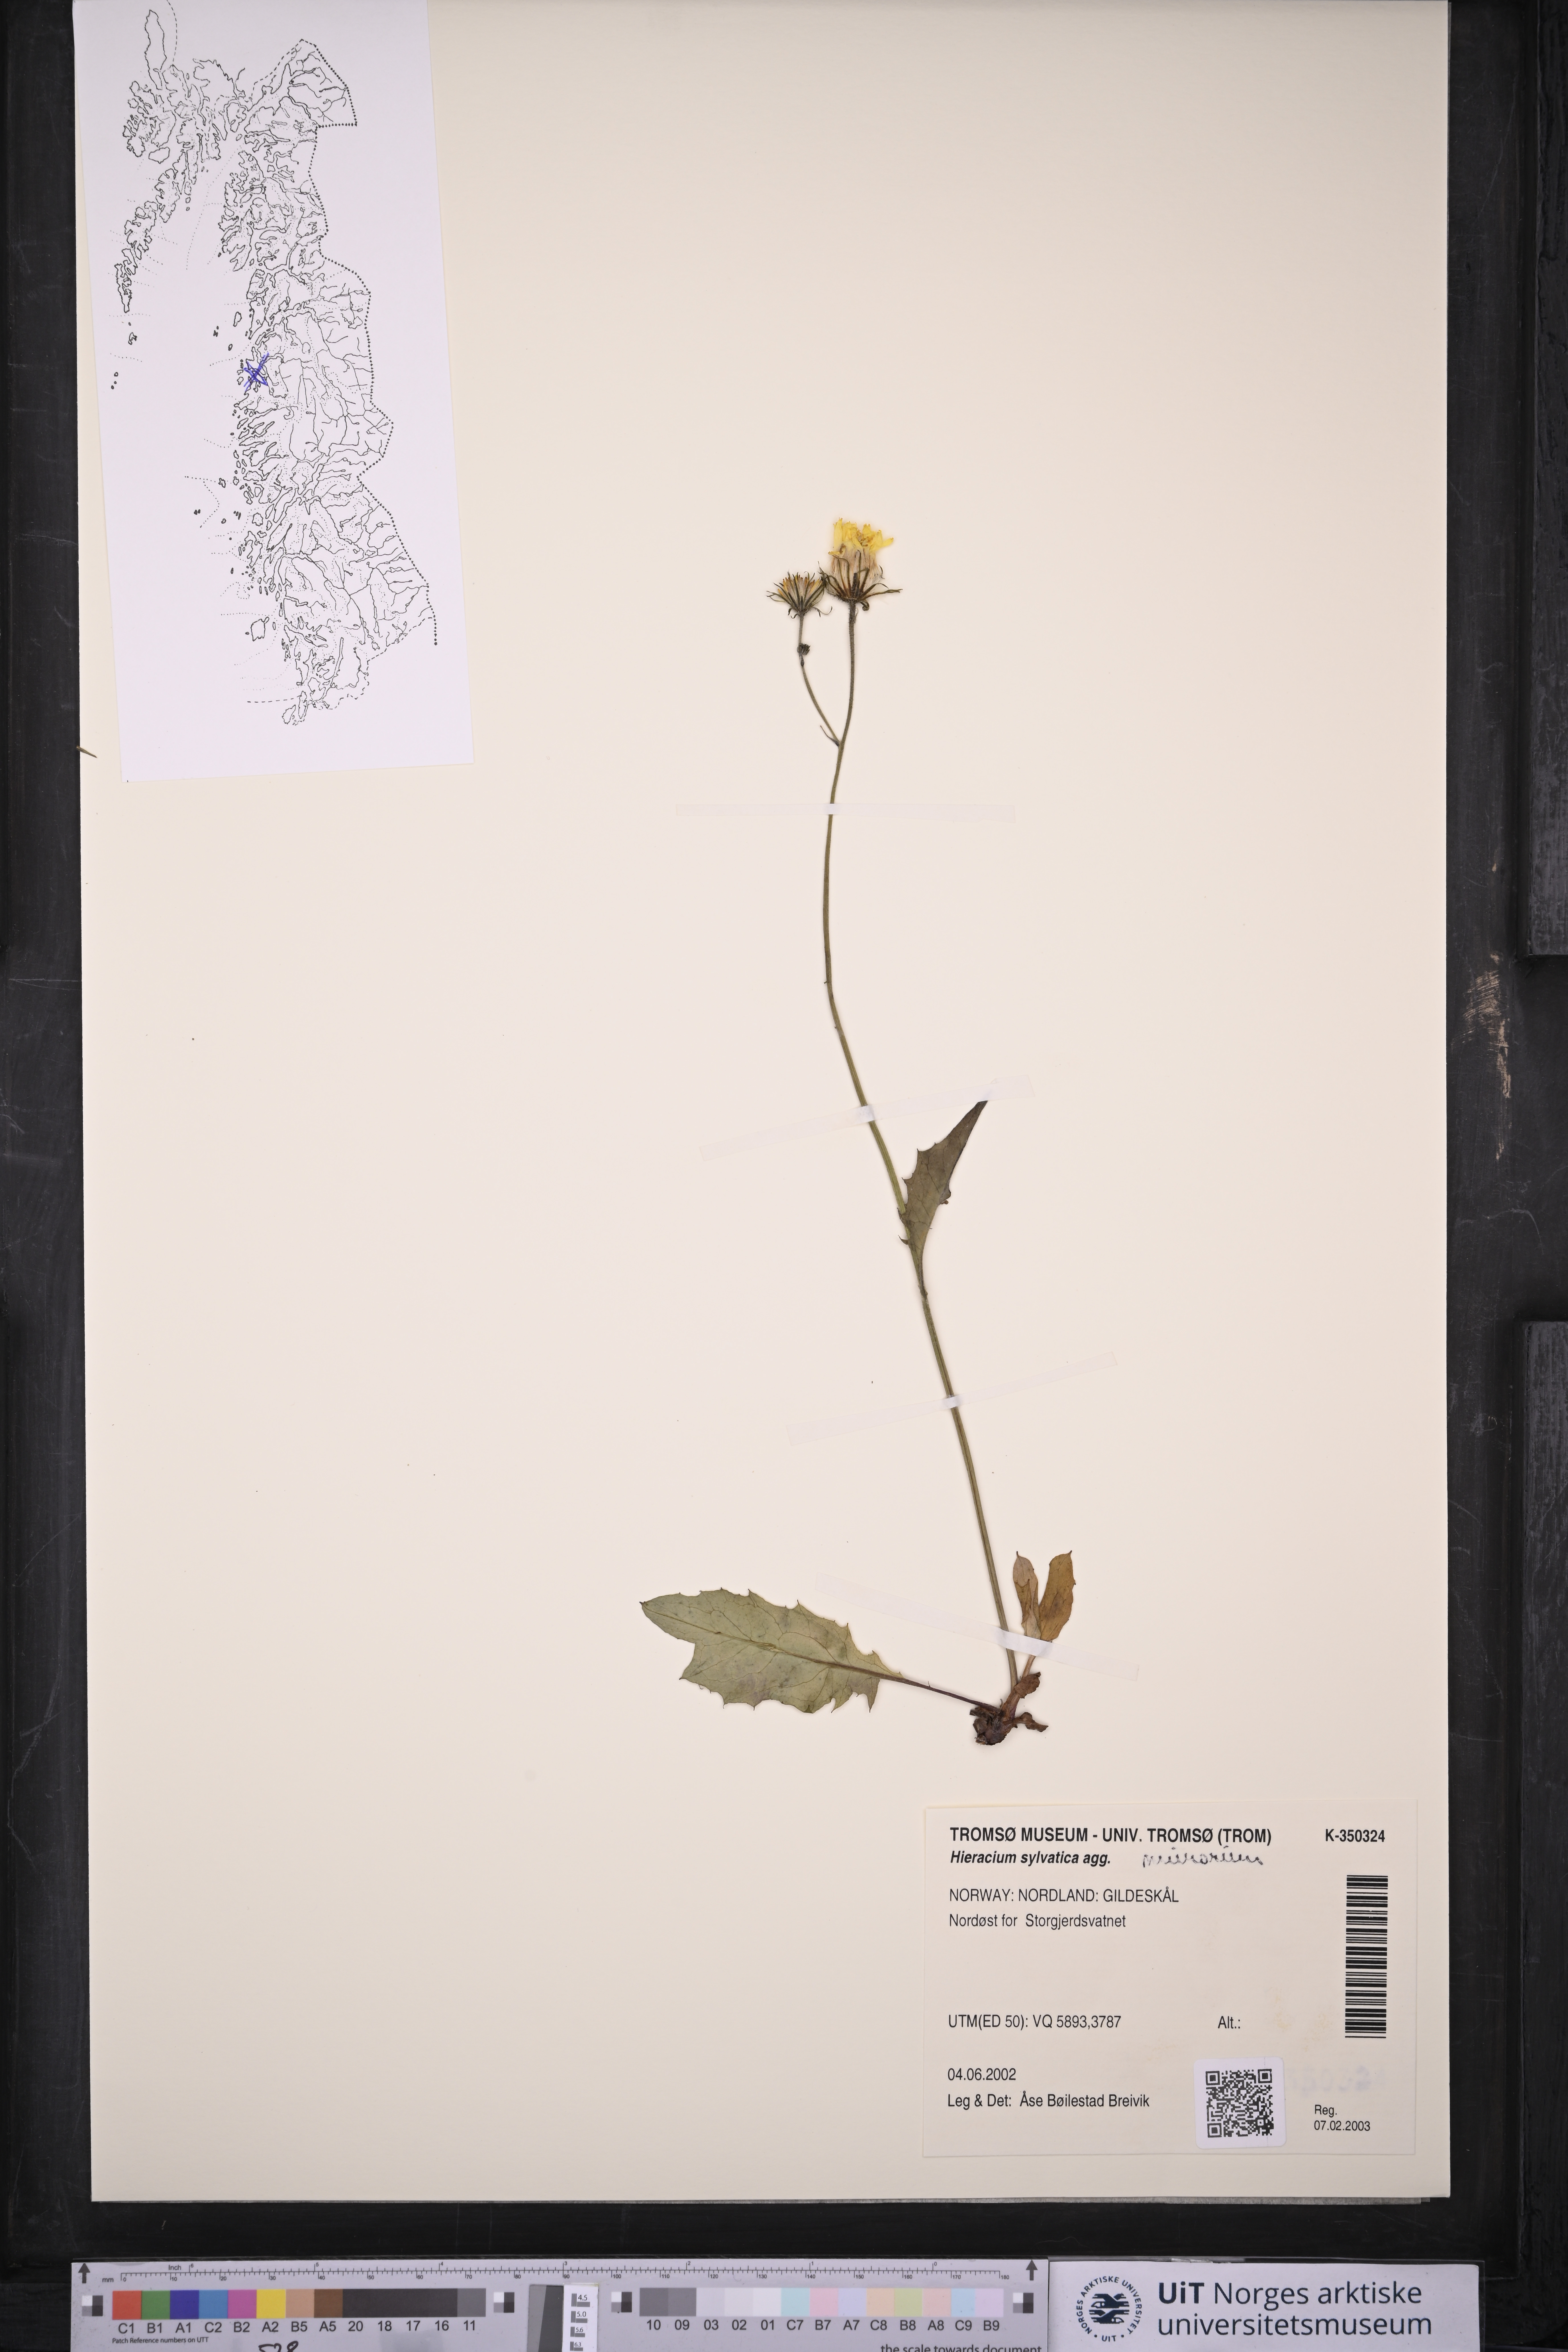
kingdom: Plantae
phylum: Tracheophyta
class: Magnoliopsida
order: Asterales
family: Asteraceae
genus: Hieracium
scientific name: Hieracium
